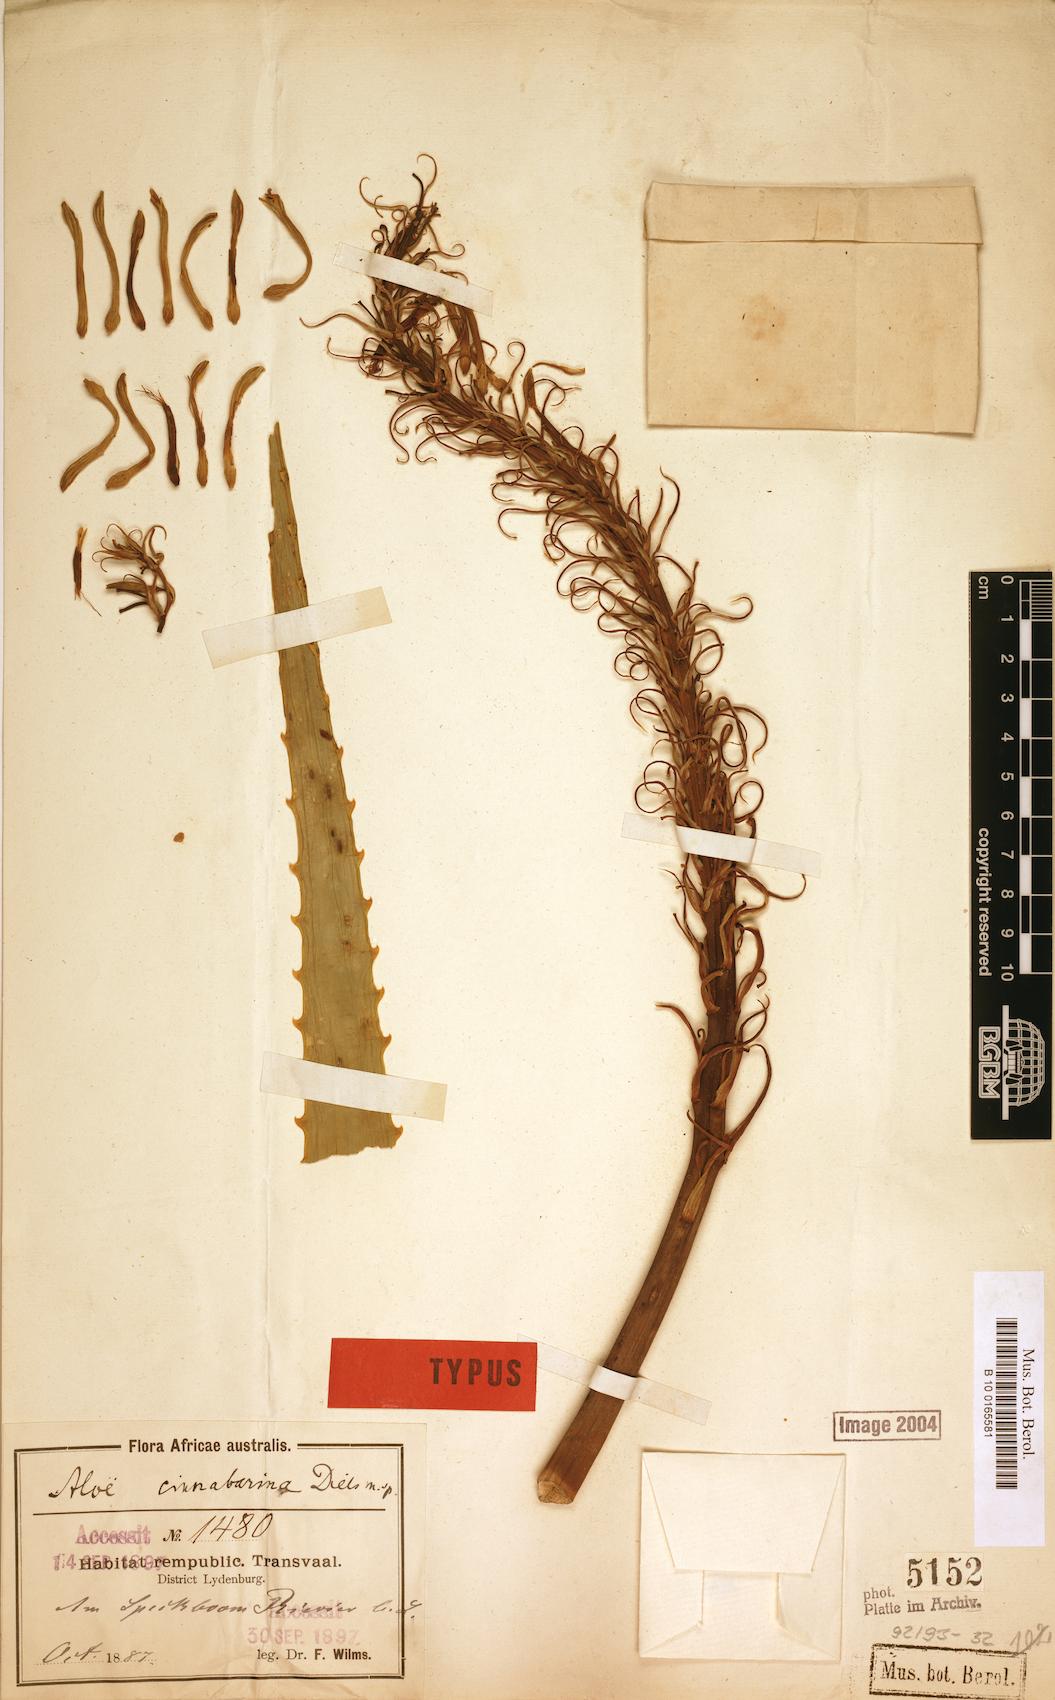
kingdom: Plantae
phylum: Tracheophyta
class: Liliopsida
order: Asparagales
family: Asphodelaceae
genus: Aloe
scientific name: Aloe cinnabarina
